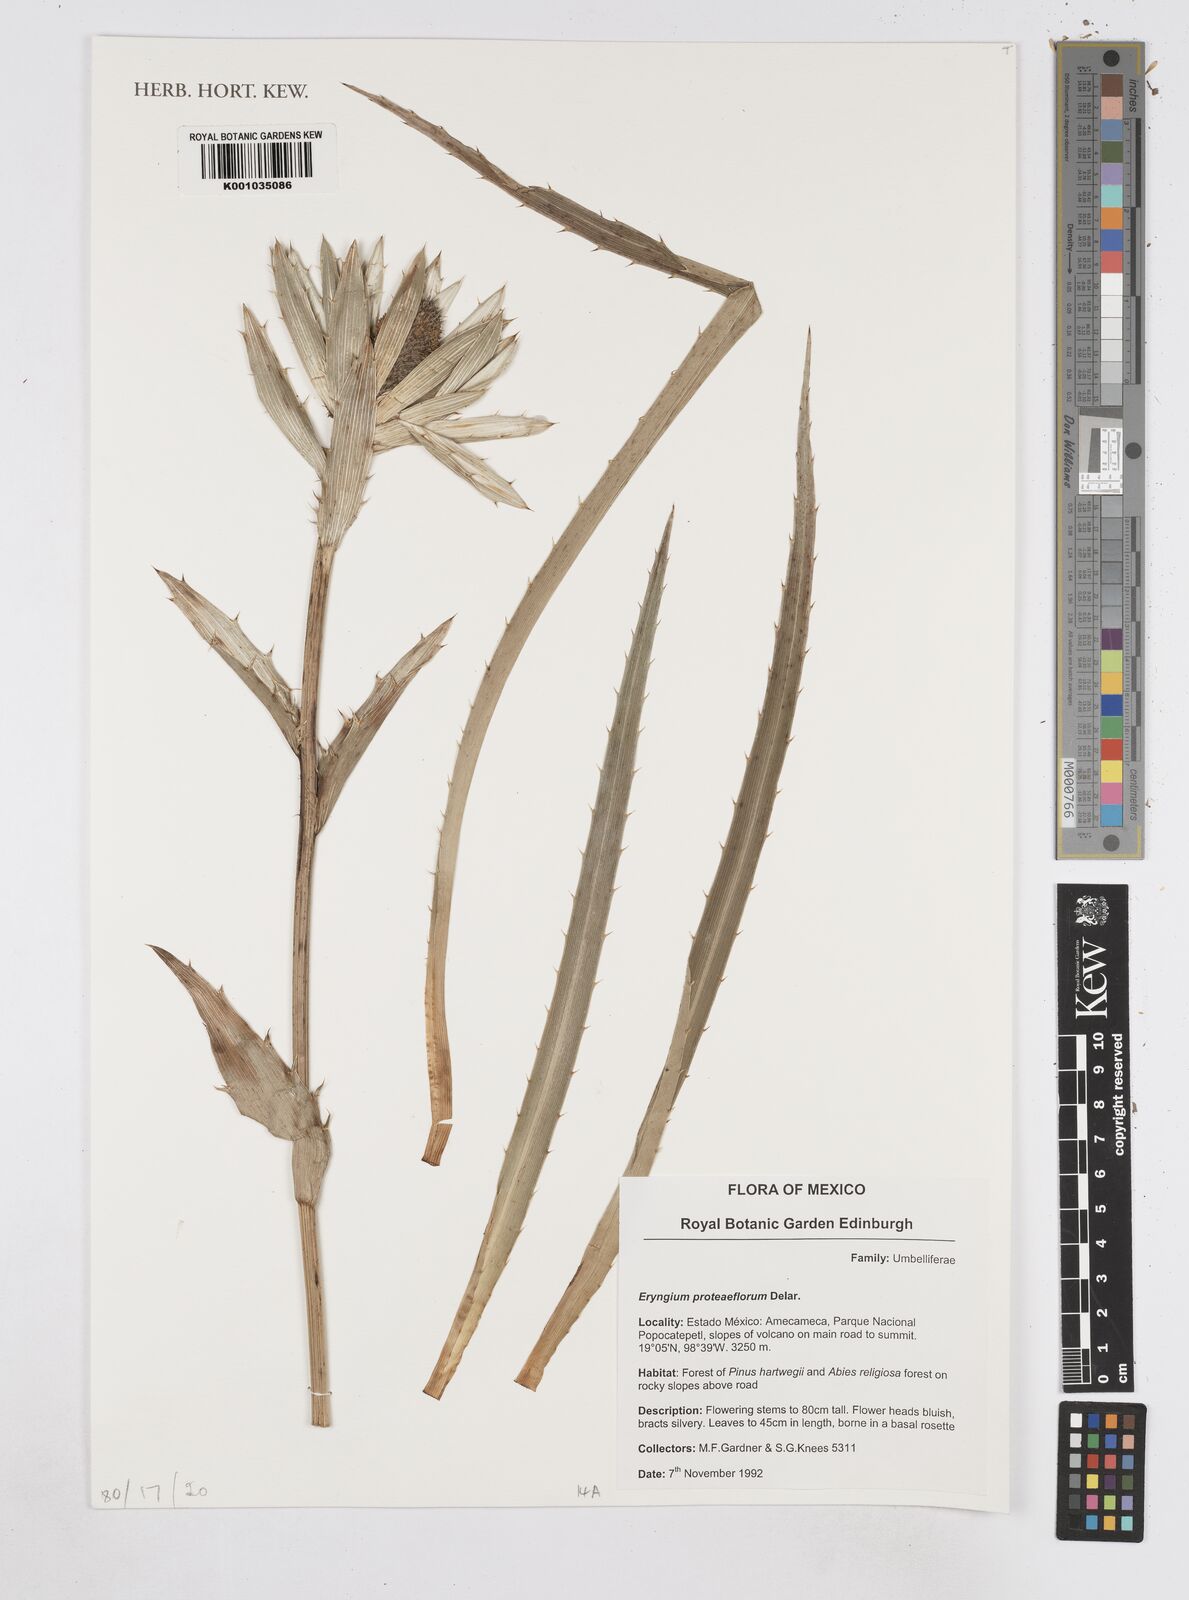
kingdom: Plantae
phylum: Tracheophyta
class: Magnoliopsida
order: Apiales
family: Apiaceae
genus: Eryngium
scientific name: Eryngium proteiflorum
